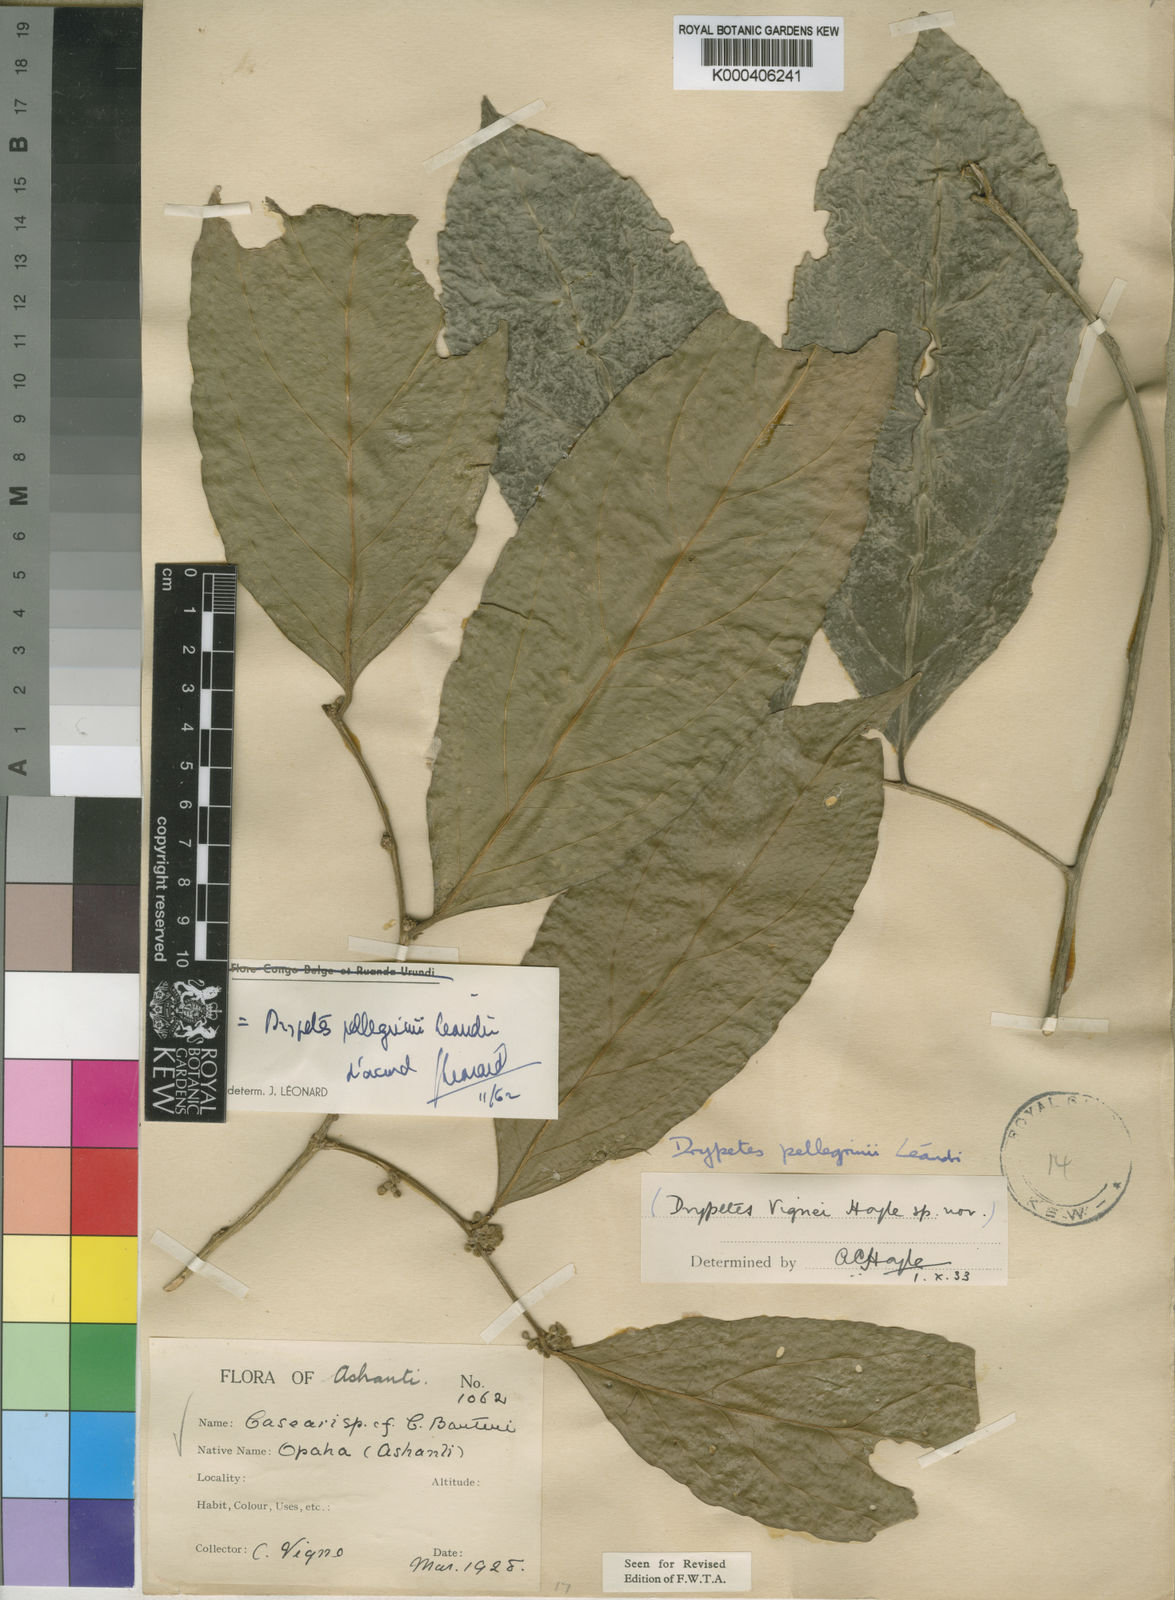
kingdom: Plantae
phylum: Tracheophyta
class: Magnoliopsida
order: Malpighiales
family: Putranjivaceae
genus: Drypetes
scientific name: Drypetes pellegrinii
